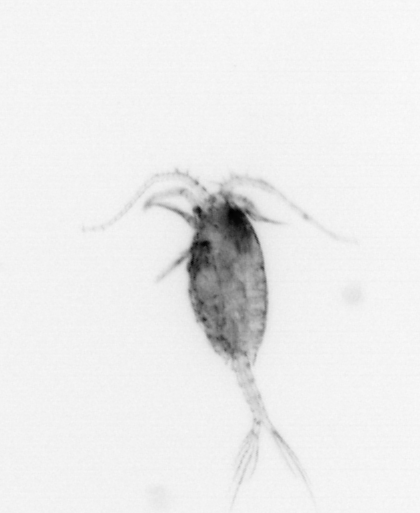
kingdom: Animalia
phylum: Arthropoda
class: Copepoda
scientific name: Copepoda
